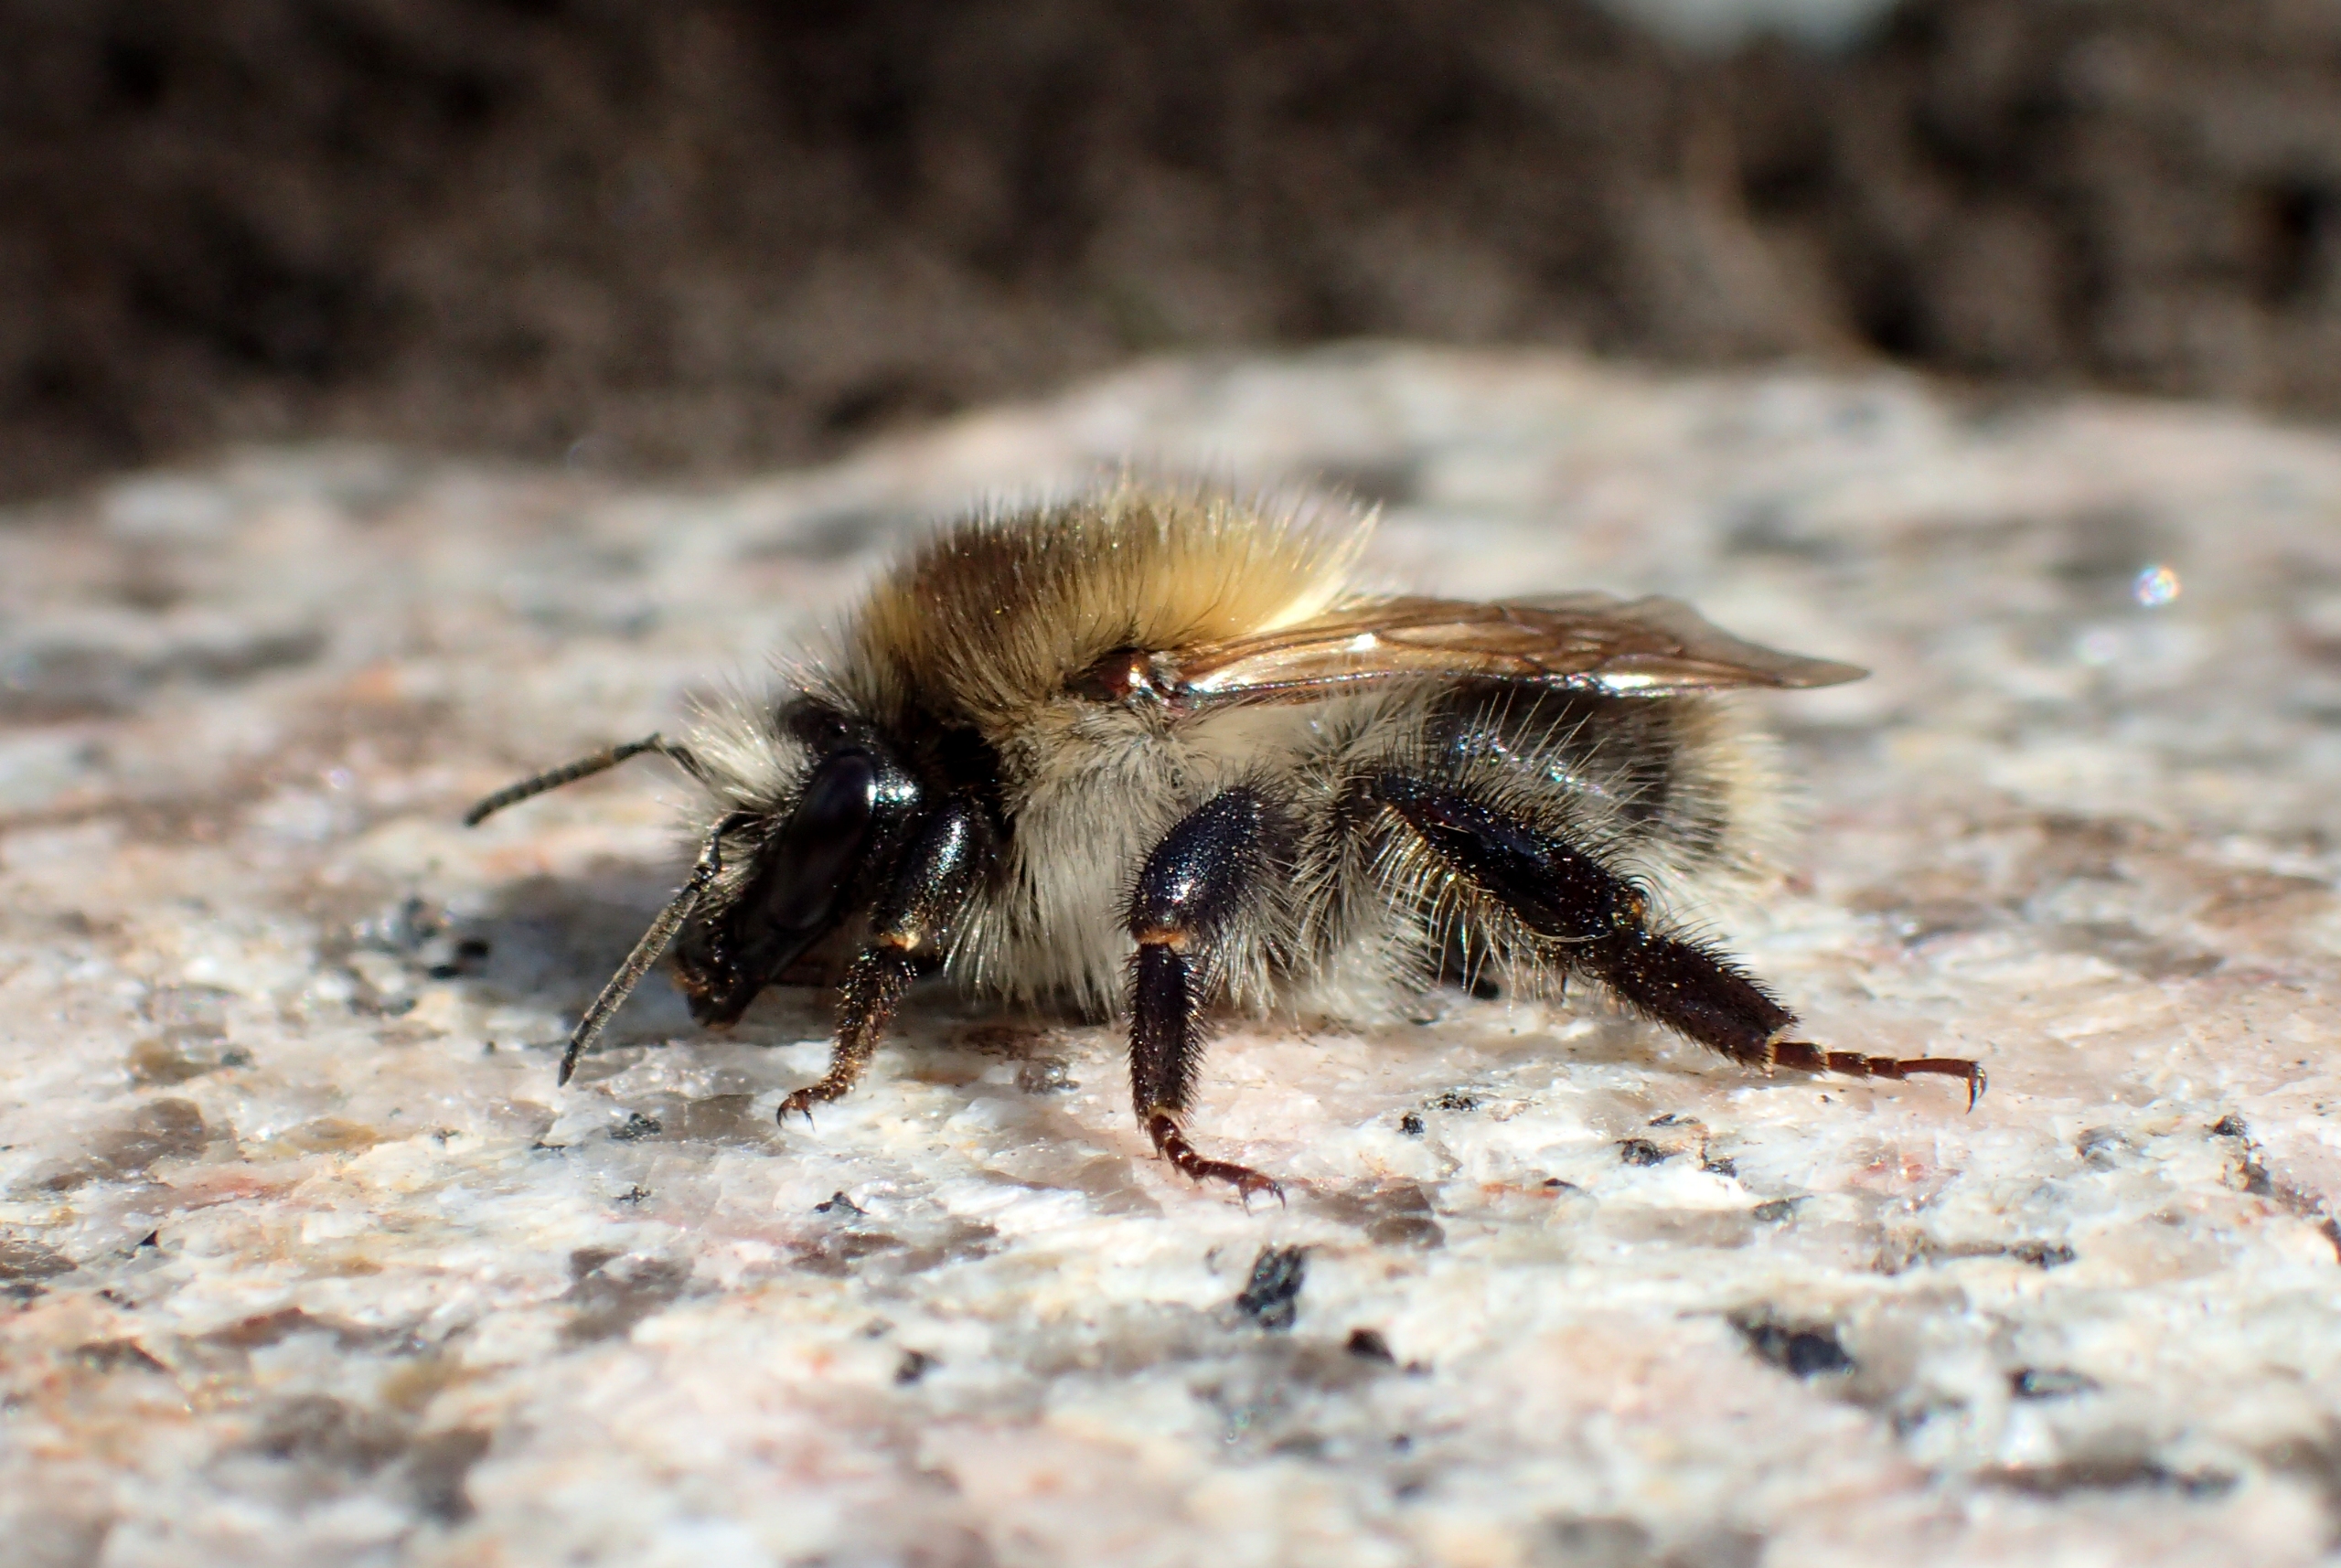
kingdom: Animalia
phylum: Arthropoda
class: Insecta
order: Hymenoptera
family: Apidae
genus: Bombus
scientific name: Bombus pascuorum
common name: Agerhumle
